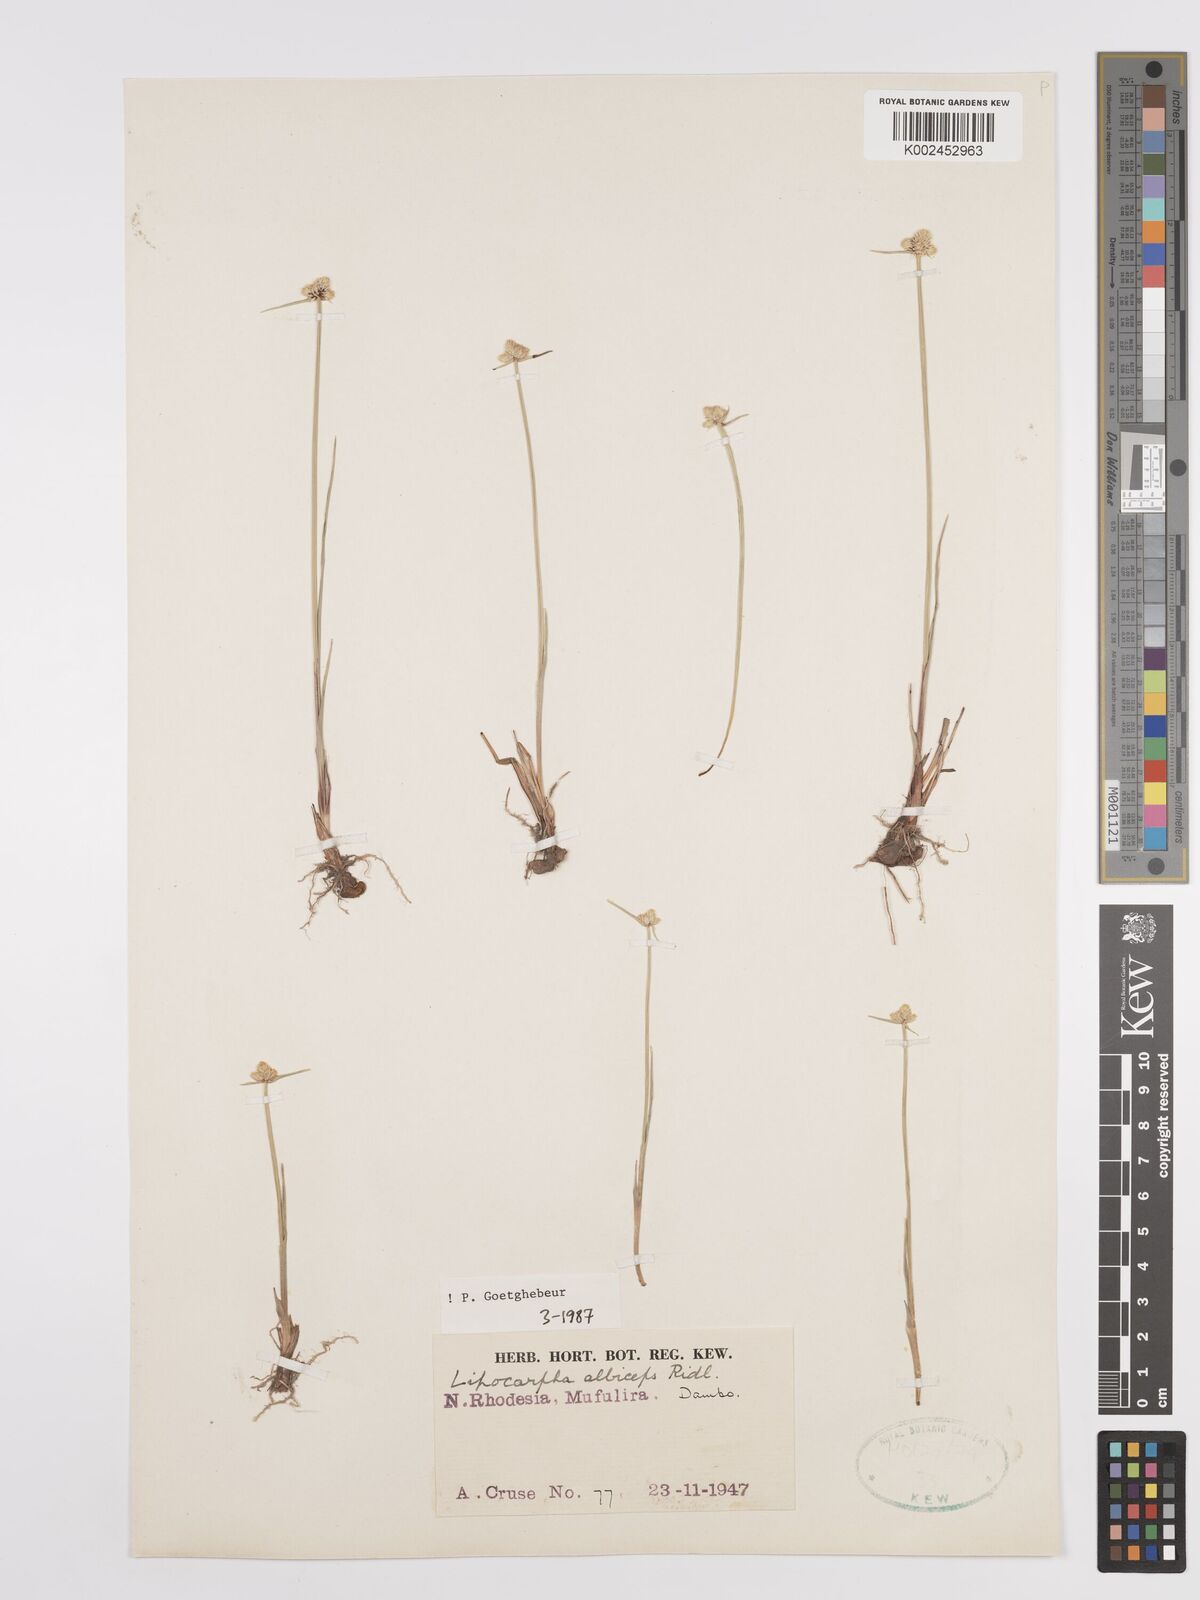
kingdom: Plantae
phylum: Tracheophyta
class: Liliopsida
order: Poales
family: Cyperaceae
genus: Cyperus
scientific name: Cyperus albiceps
